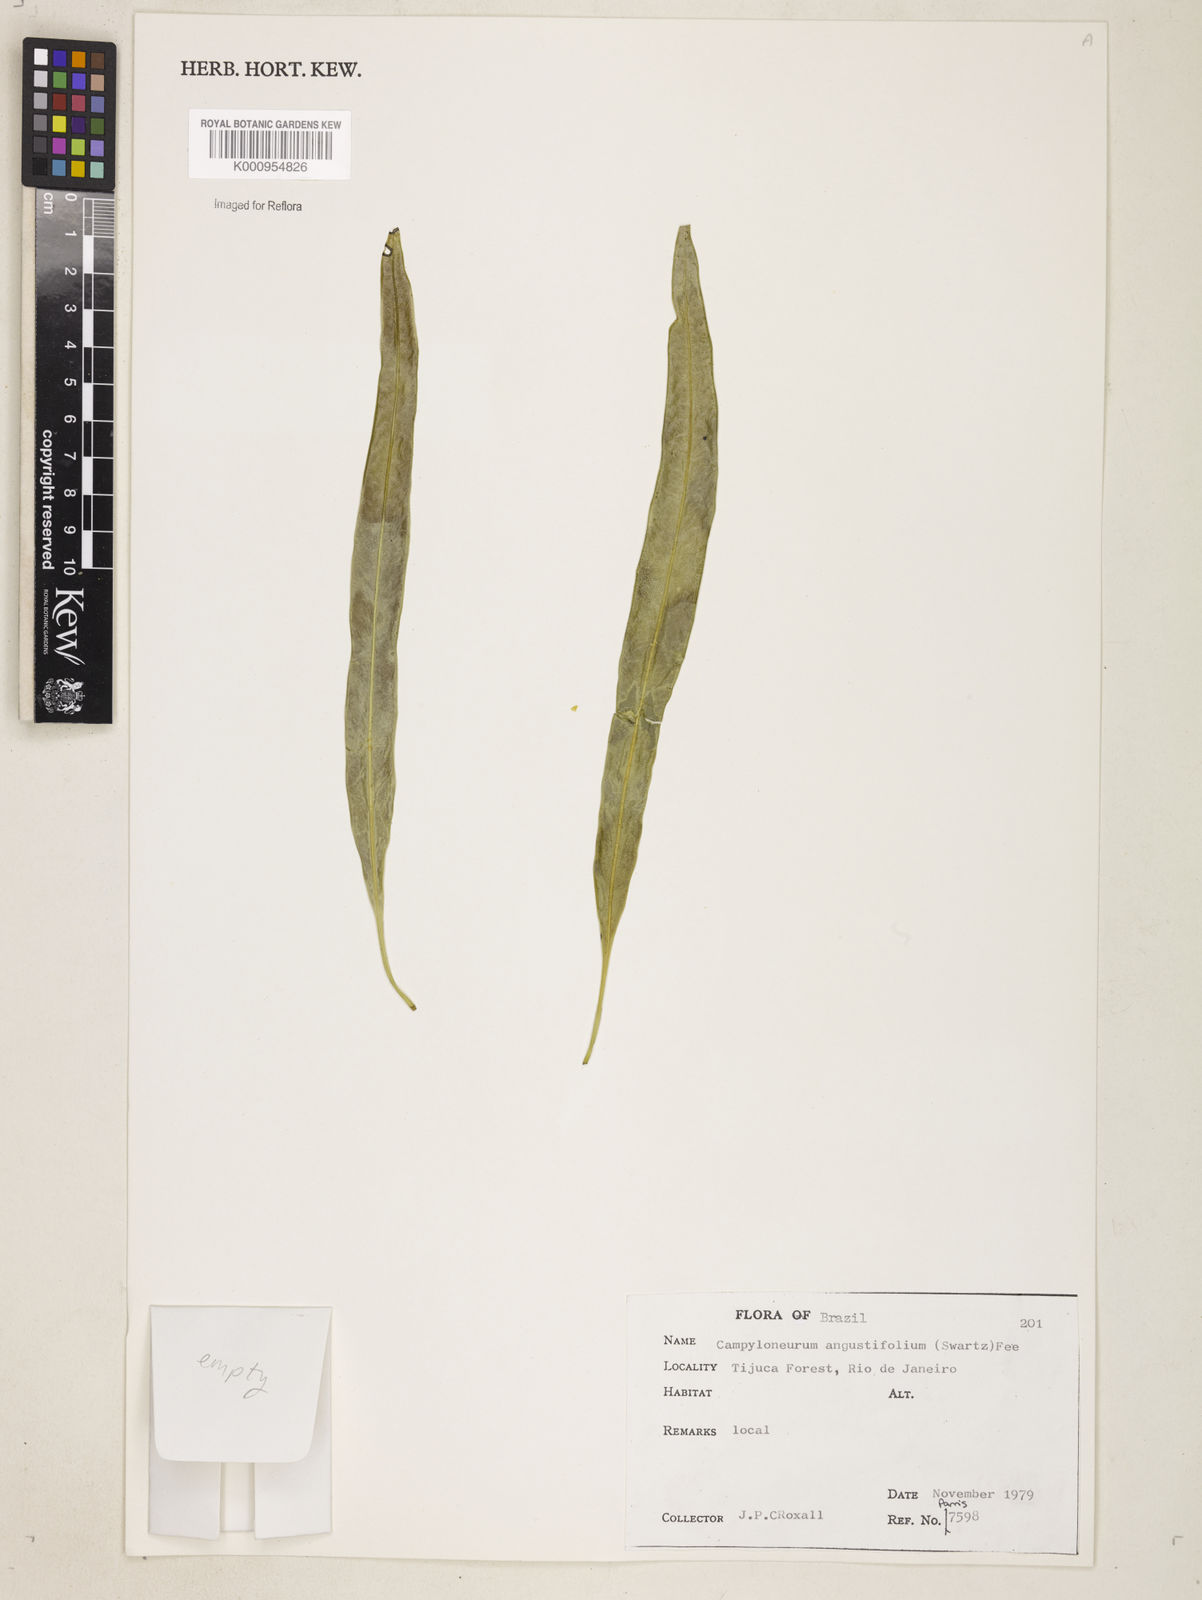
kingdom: Plantae
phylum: Tracheophyta
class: Polypodiopsida
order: Polypodiales
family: Polypodiaceae
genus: Campyloneurum
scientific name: Campyloneurum rigidum
